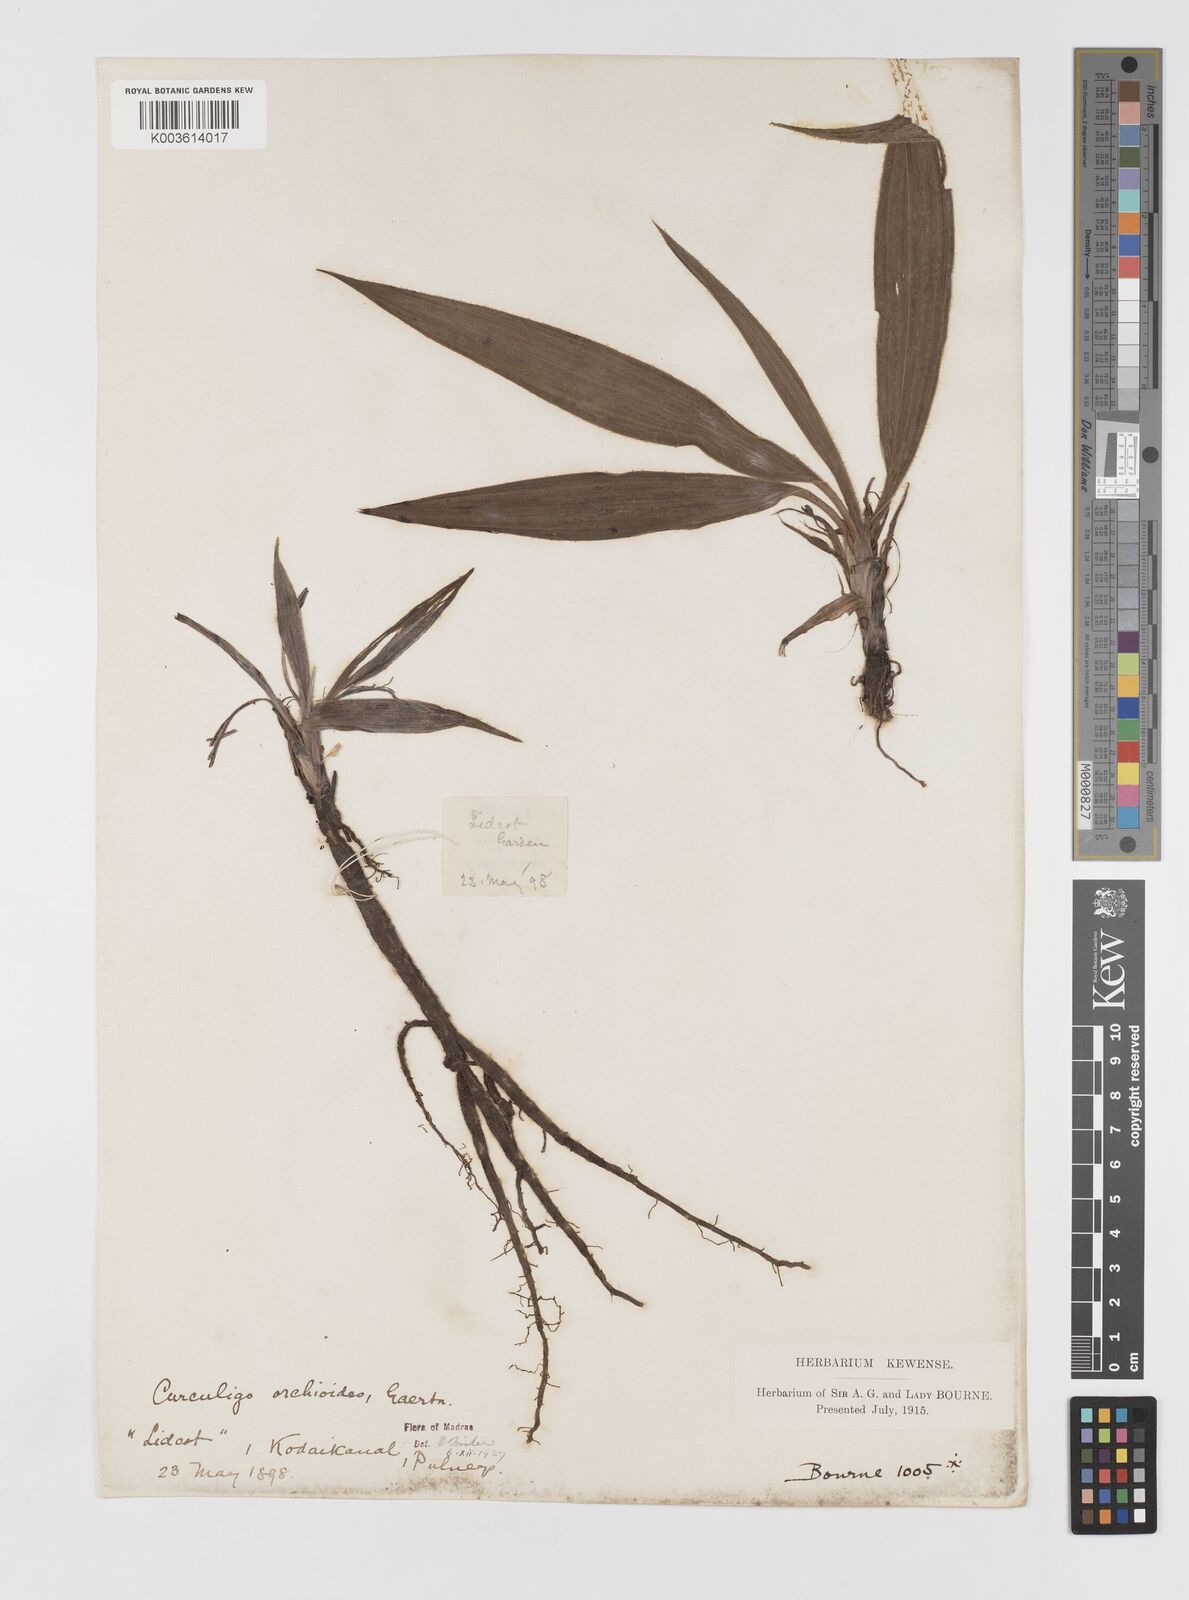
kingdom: Plantae
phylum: Tracheophyta
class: Liliopsida
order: Asparagales
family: Hypoxidaceae
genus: Curculigo
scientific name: Curculigo orchioides
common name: Golden eye-grass
